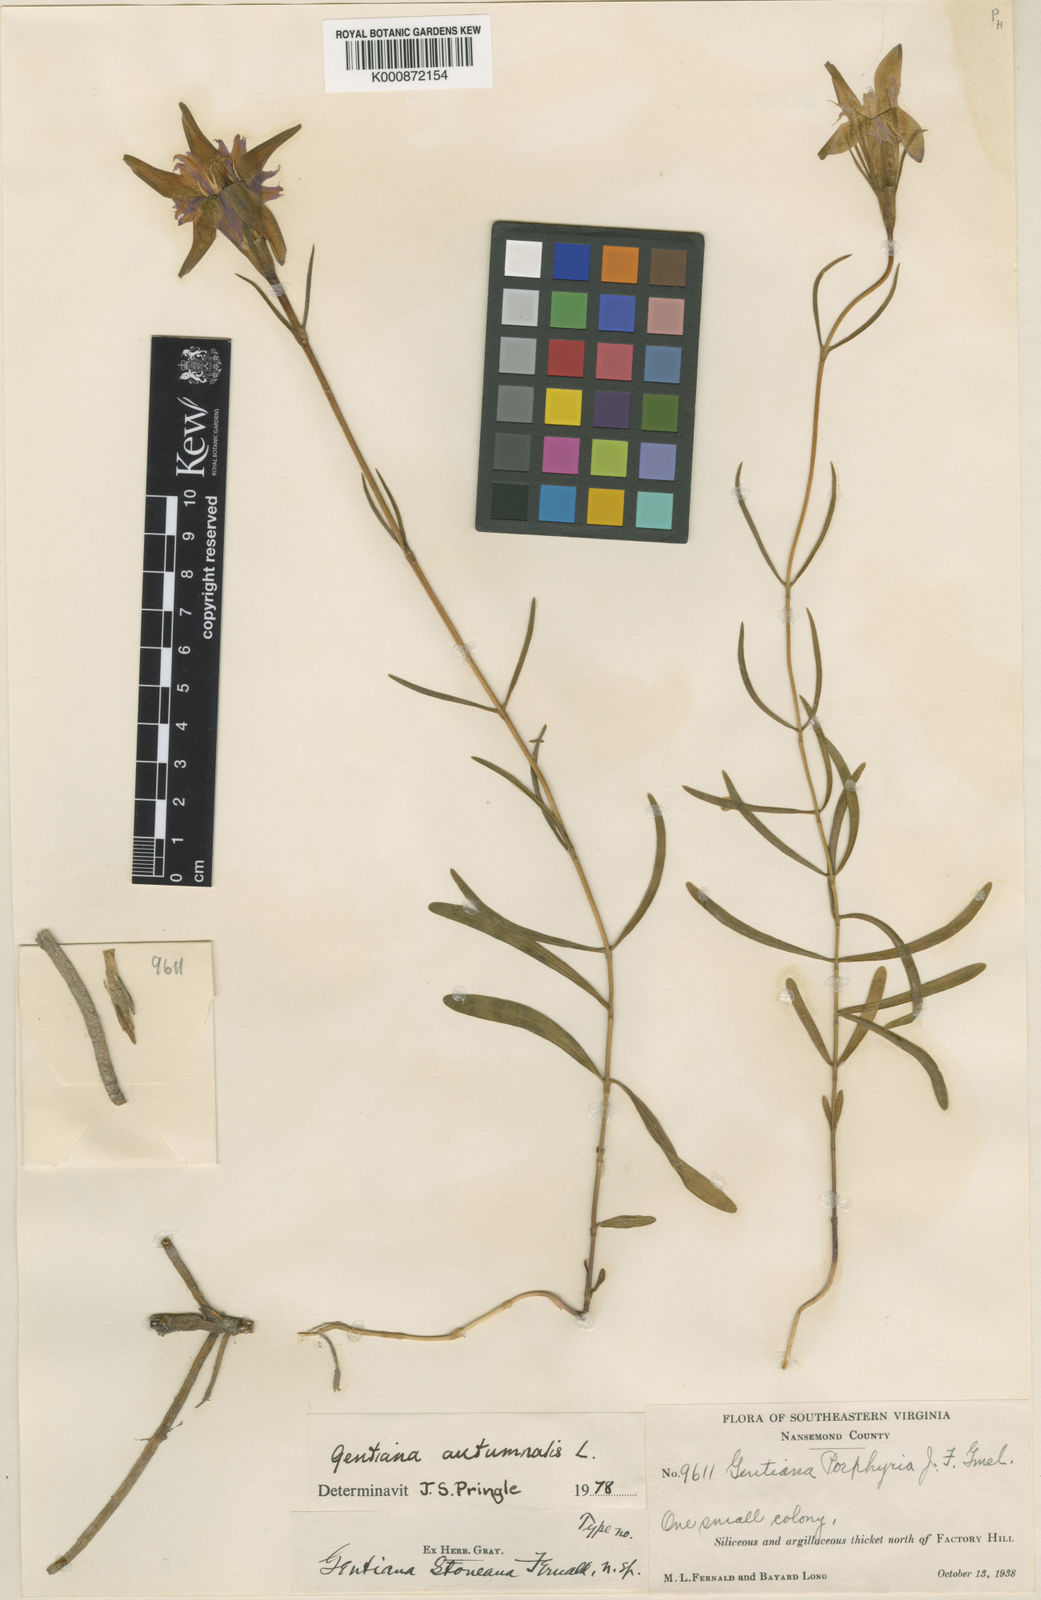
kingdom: Plantae
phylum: Tracheophyta
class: Magnoliopsida
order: Gentianales
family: Gentianaceae
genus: Gentiana
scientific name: Gentiana autumnalis
